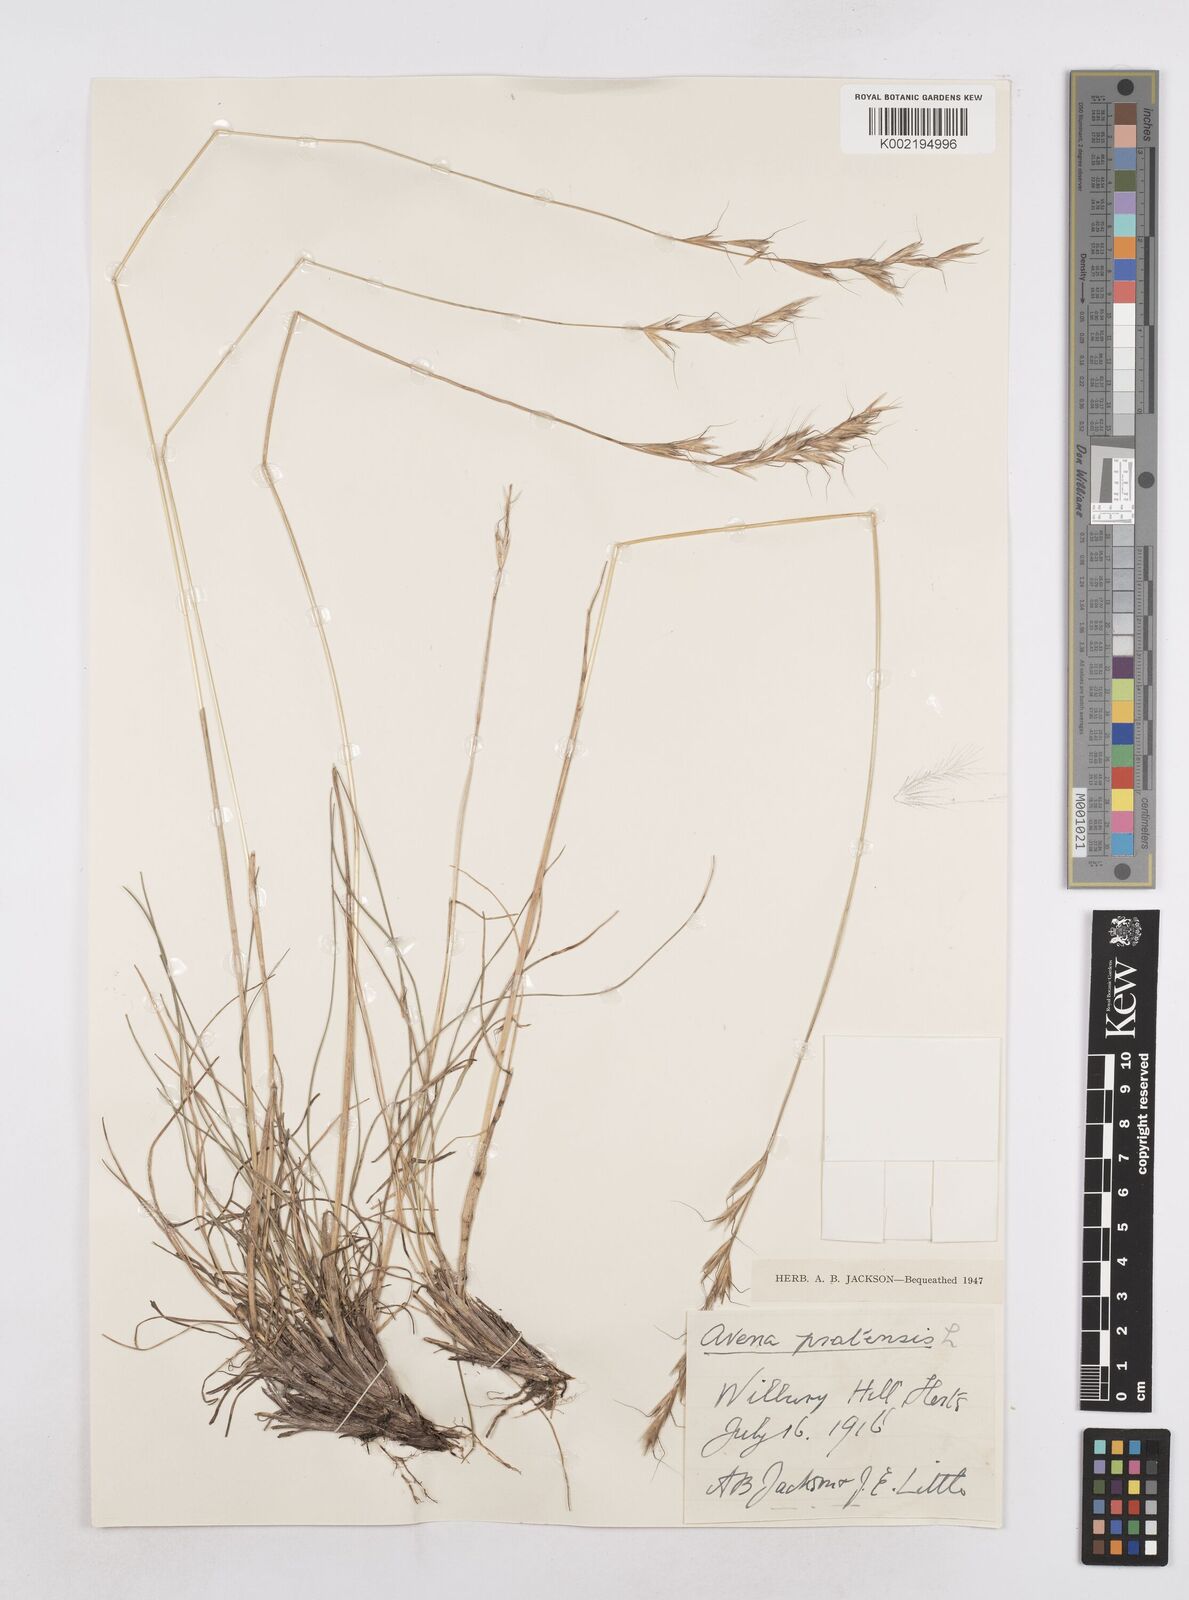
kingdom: Plantae
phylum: Tracheophyta
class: Liliopsida
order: Poales
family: Poaceae
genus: Helictochloa
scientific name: Helictochloa pratensis
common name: Meadow oat grass
